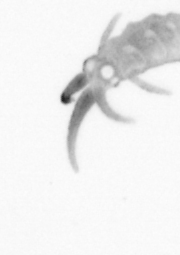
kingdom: Animalia
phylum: Annelida
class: Polychaeta
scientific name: Polychaeta
